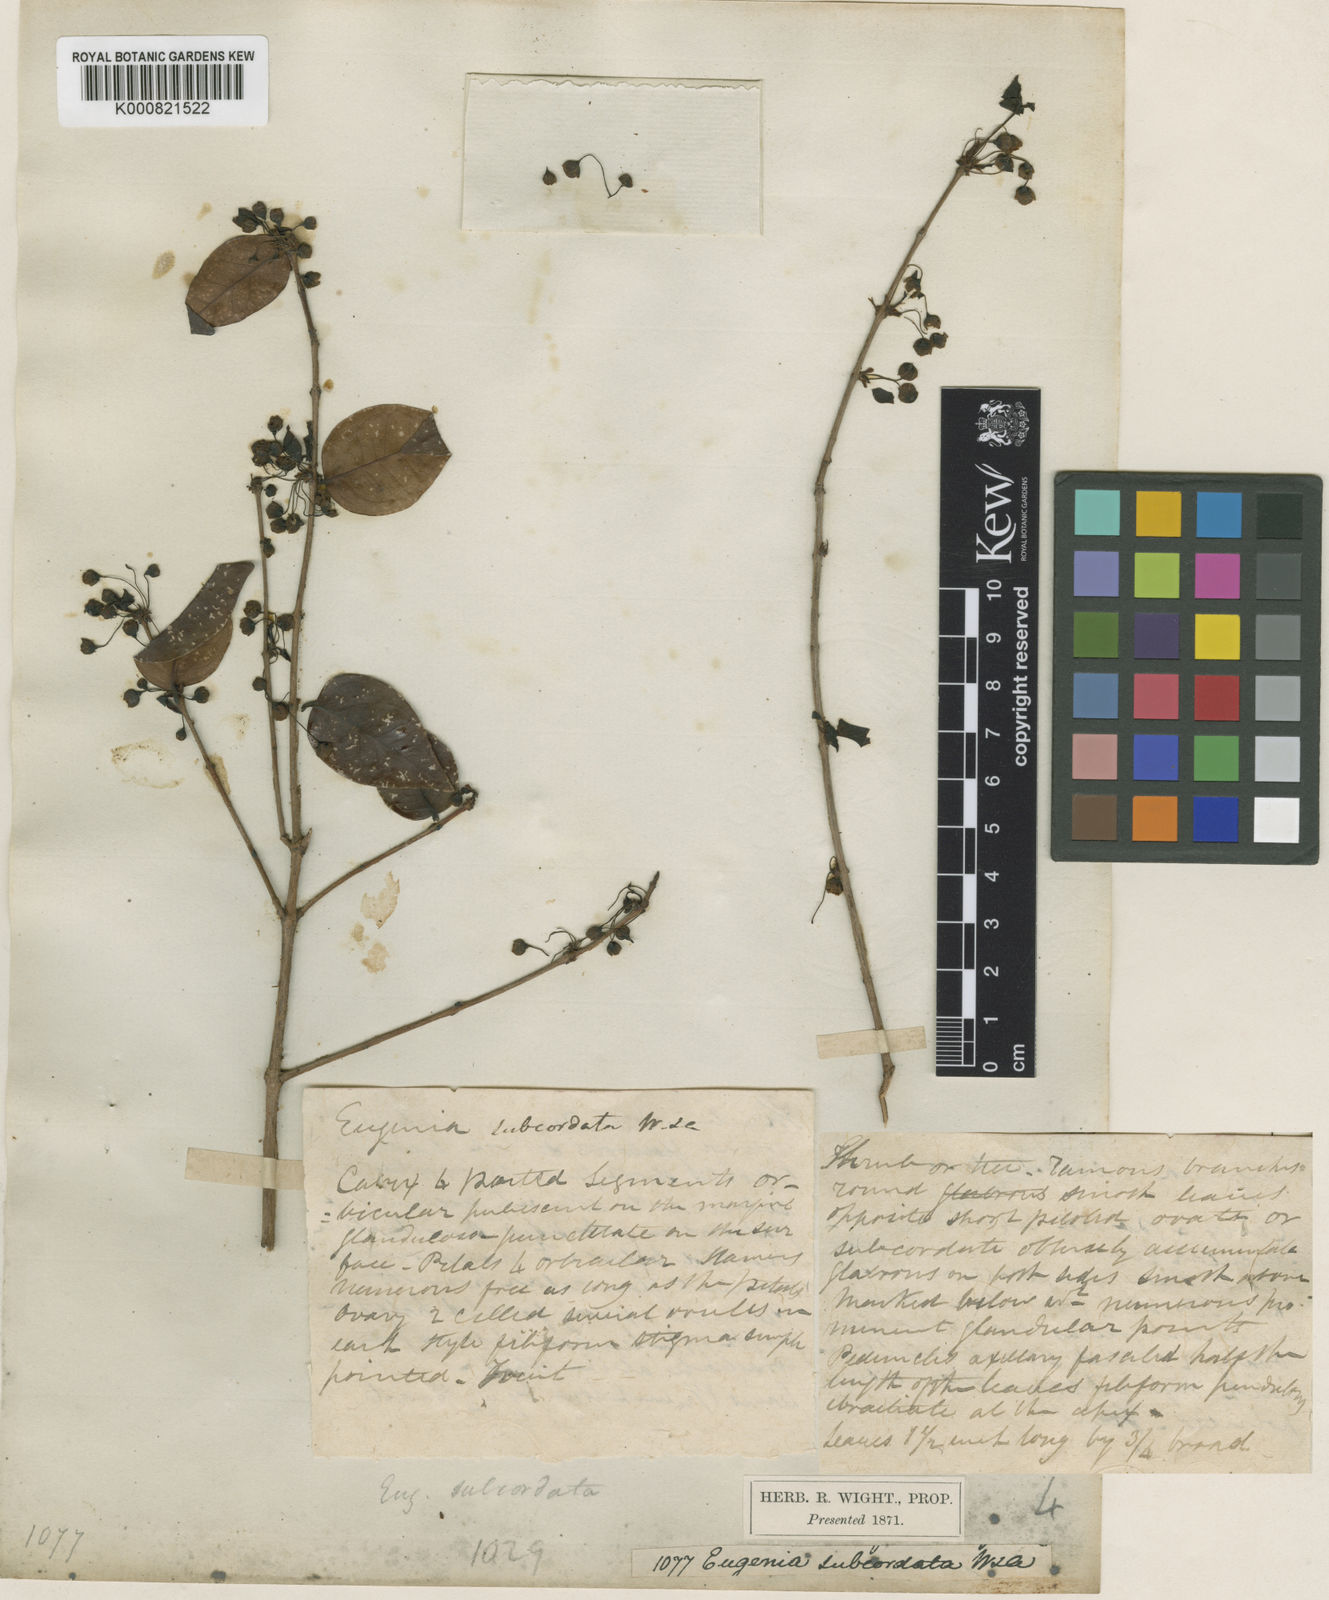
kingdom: Plantae
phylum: Tracheophyta
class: Magnoliopsida
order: Myrtales
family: Myrtaceae
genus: Eugenia
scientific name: Eugenia uniflora
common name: Surinam cherry
